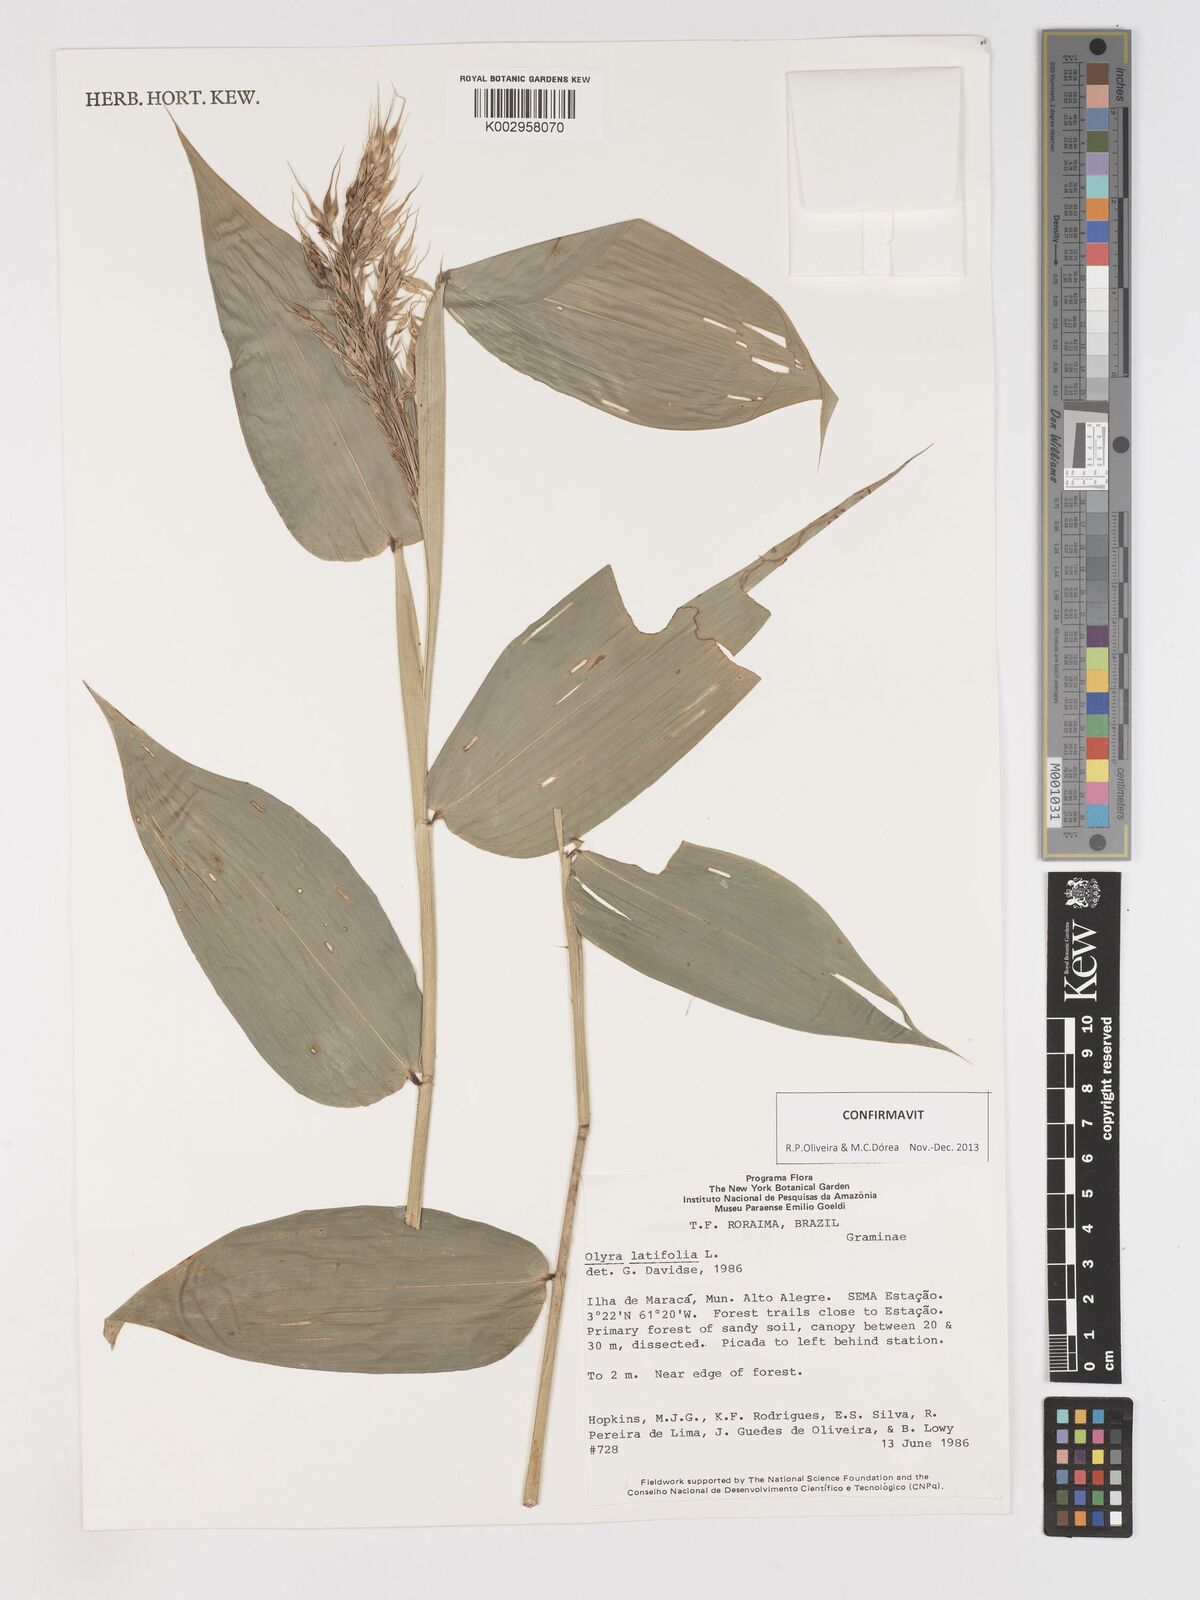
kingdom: Plantae
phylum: Tracheophyta
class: Liliopsida
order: Poales
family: Poaceae
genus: Olyra
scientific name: Olyra latifolia
